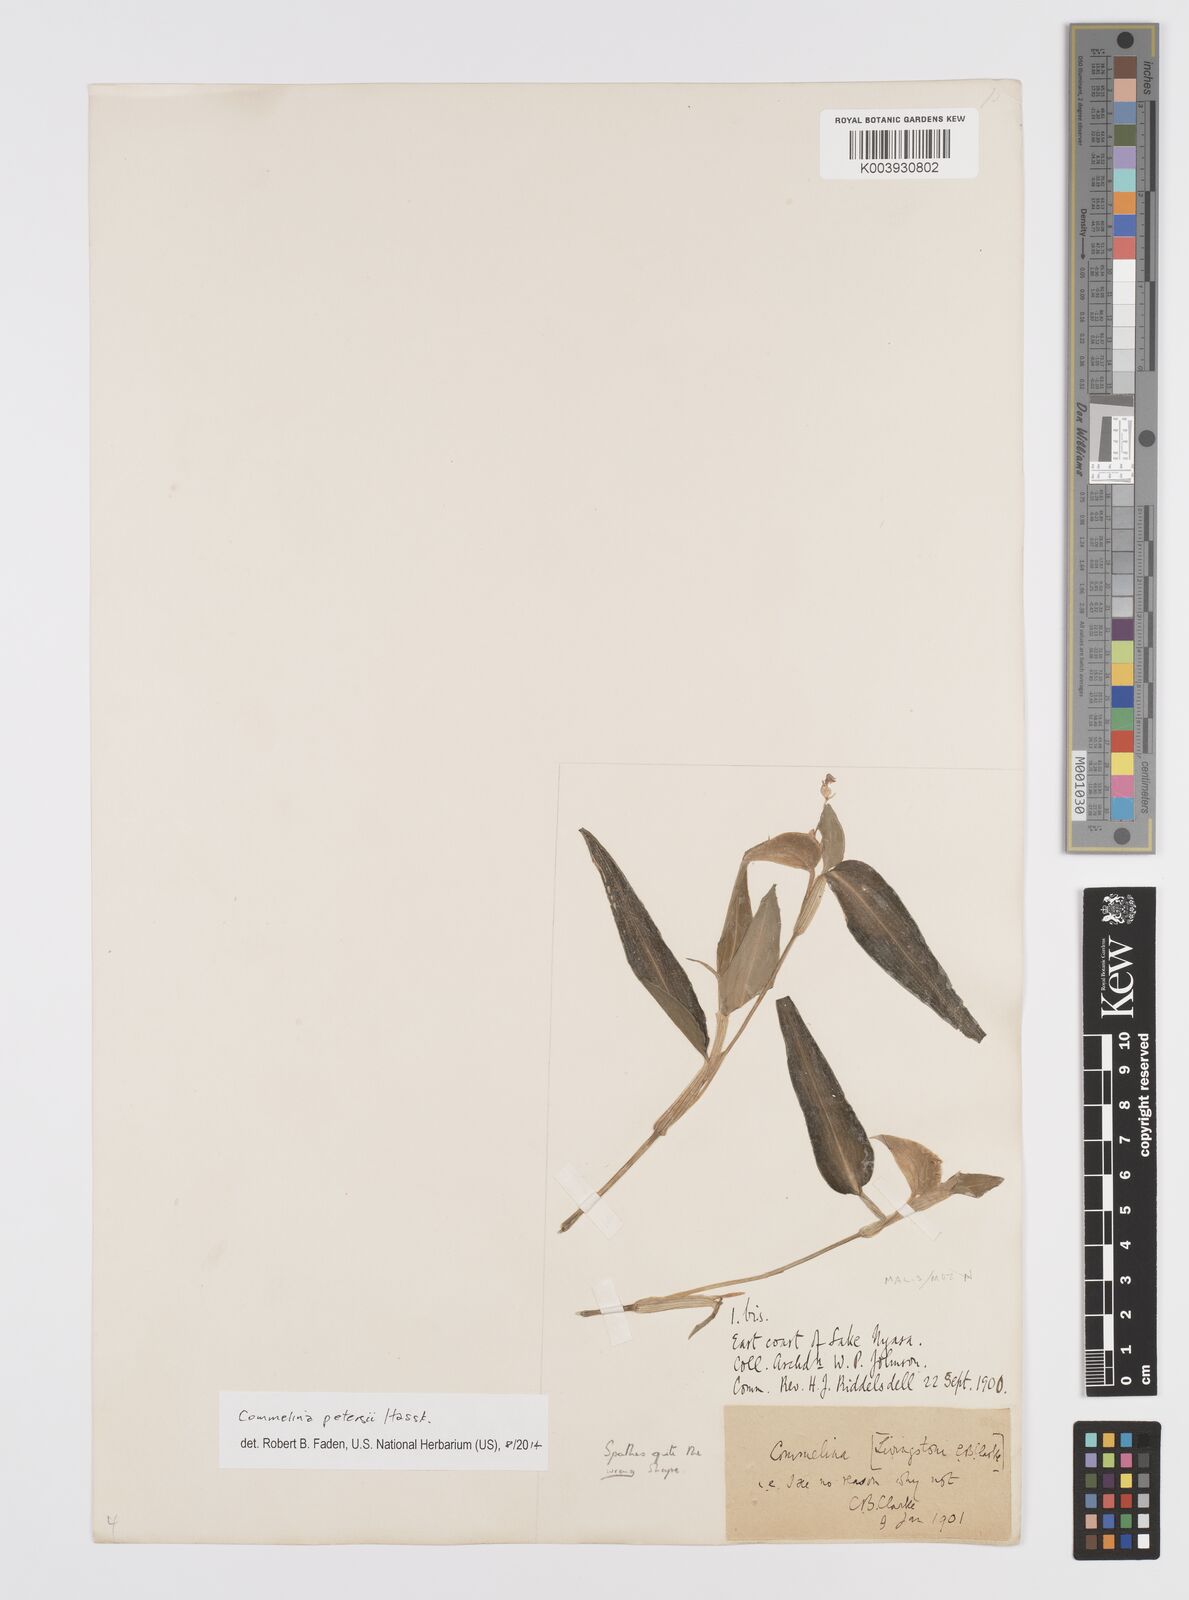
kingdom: Plantae
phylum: Tracheophyta
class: Liliopsida
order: Commelinales
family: Commelinaceae
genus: Commelina
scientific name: Commelina petersii
